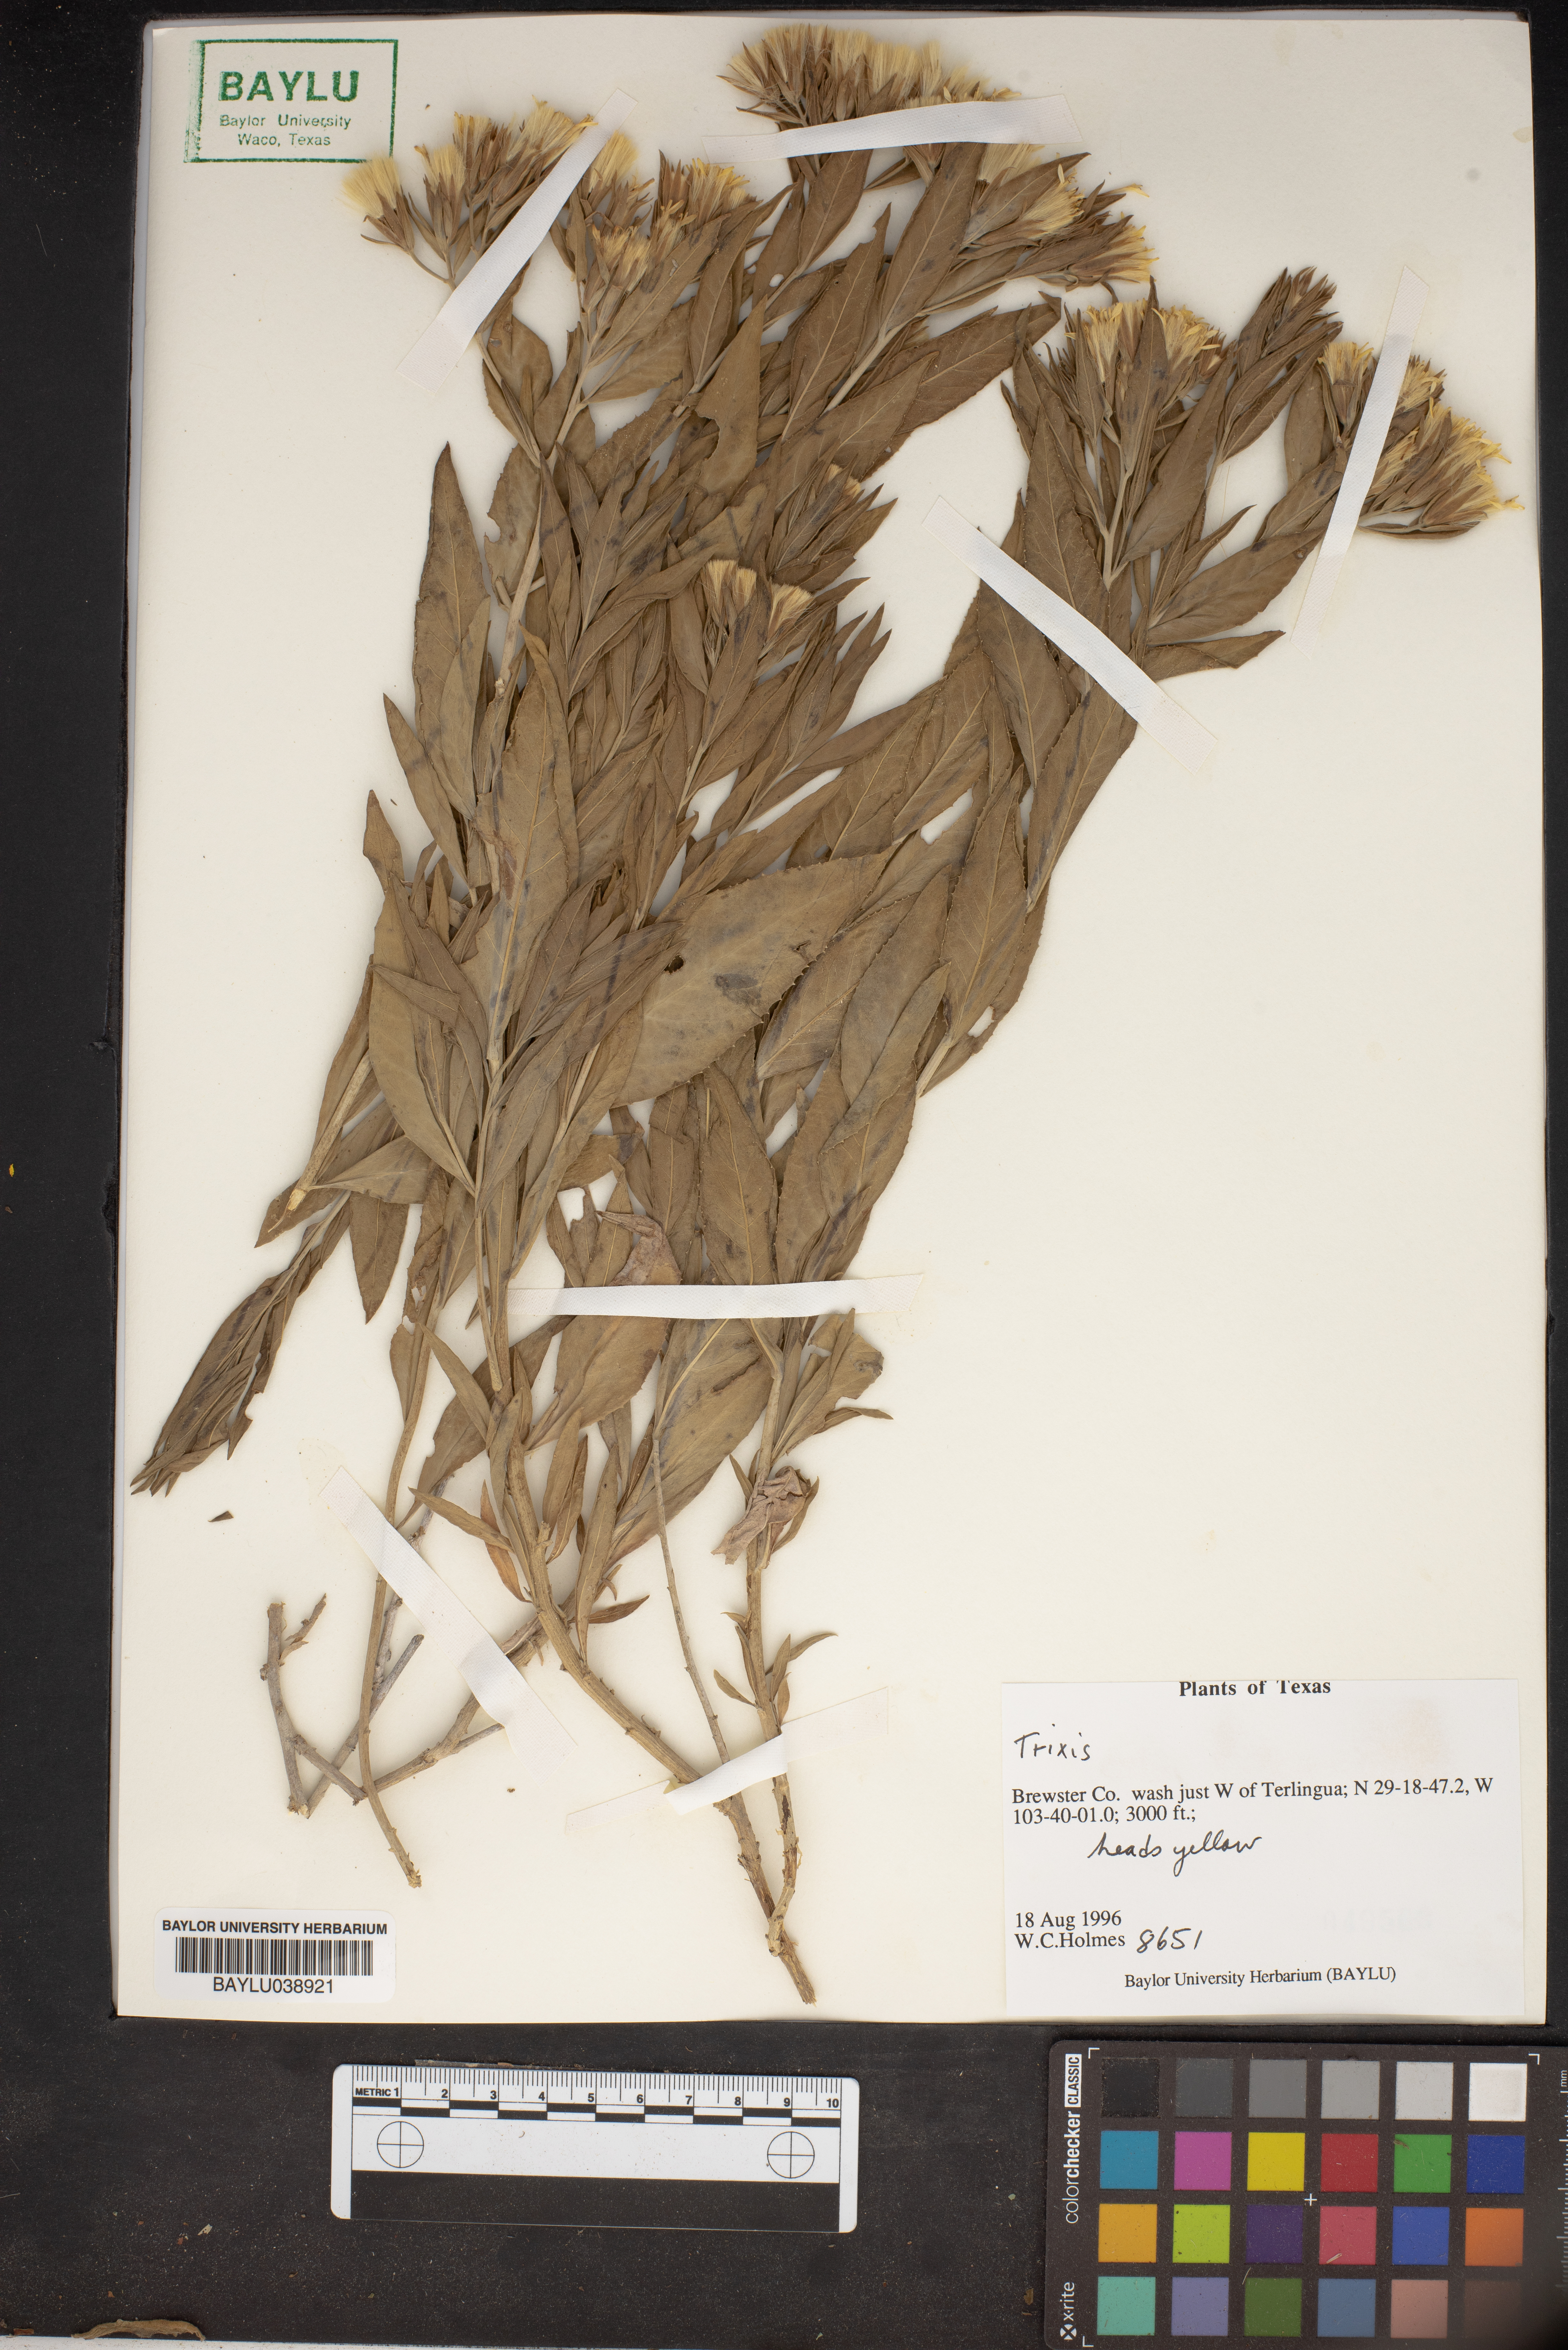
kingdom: Plantae
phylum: Tracheophyta
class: Magnoliopsida
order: Asterales
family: Asteraceae
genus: Trixis
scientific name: Trixis
